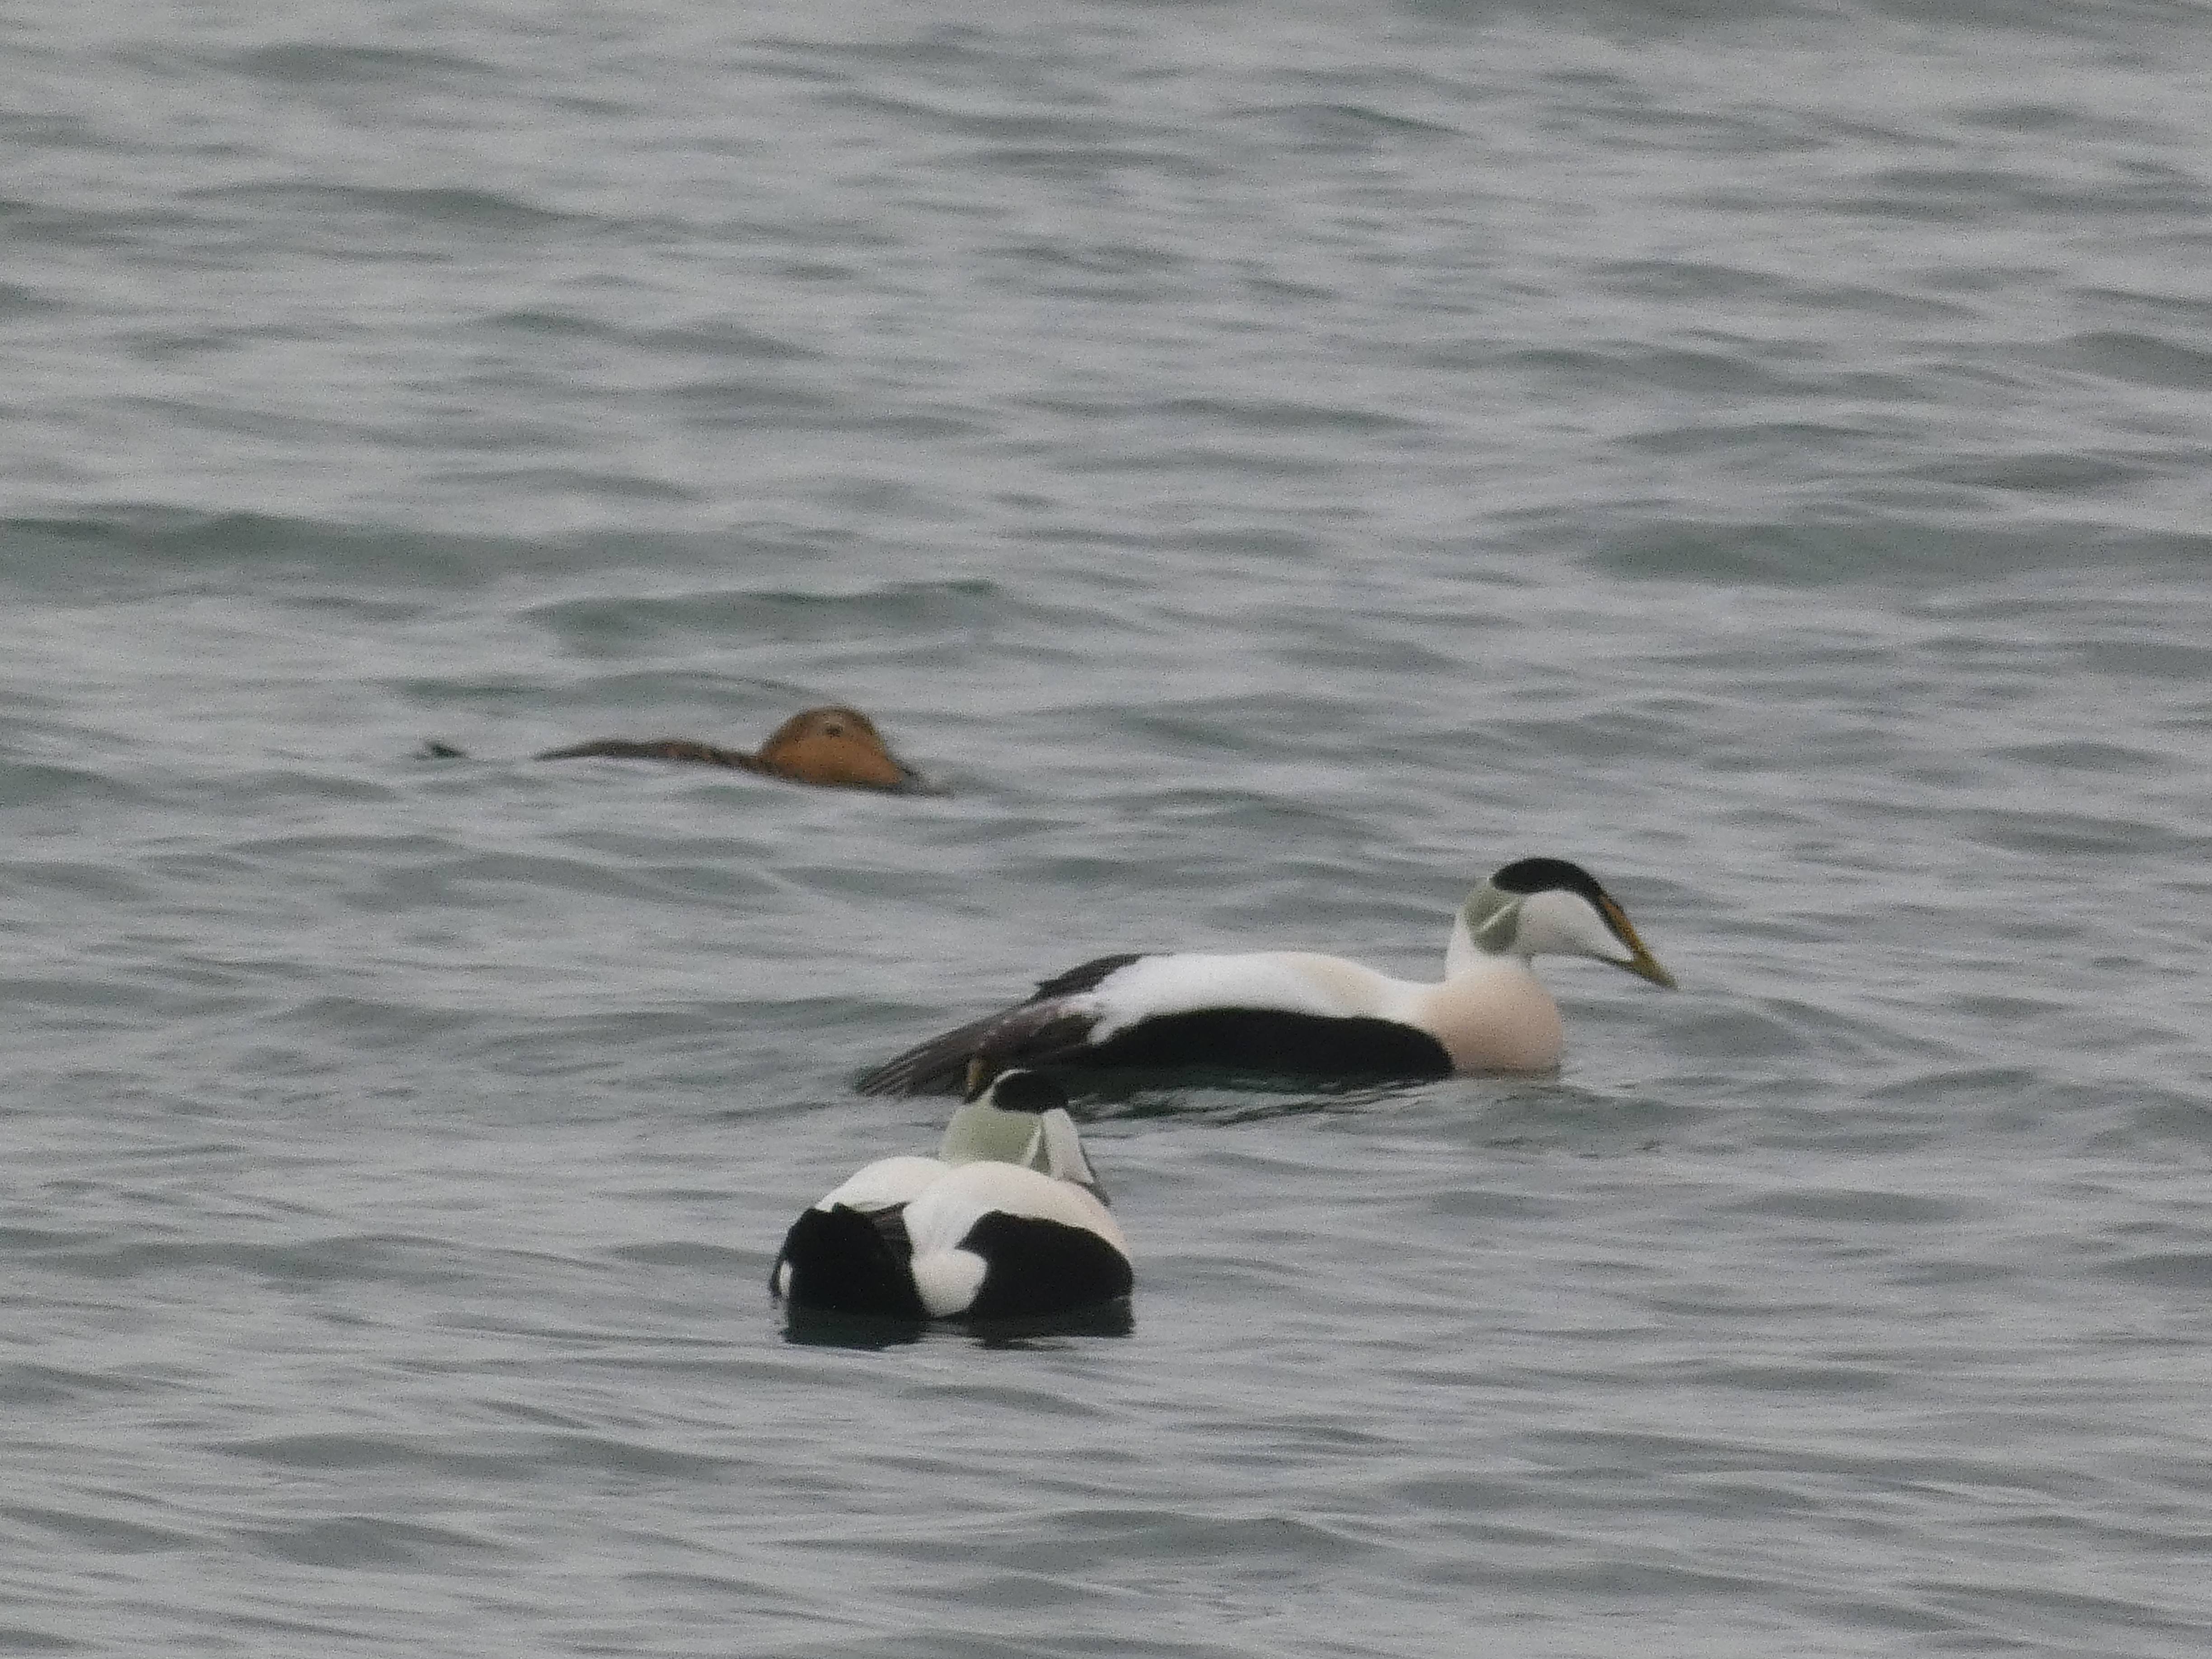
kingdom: Animalia
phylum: Chordata
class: Aves
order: Anseriformes
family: Anatidae
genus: Somateria
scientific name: Somateria mollissima
